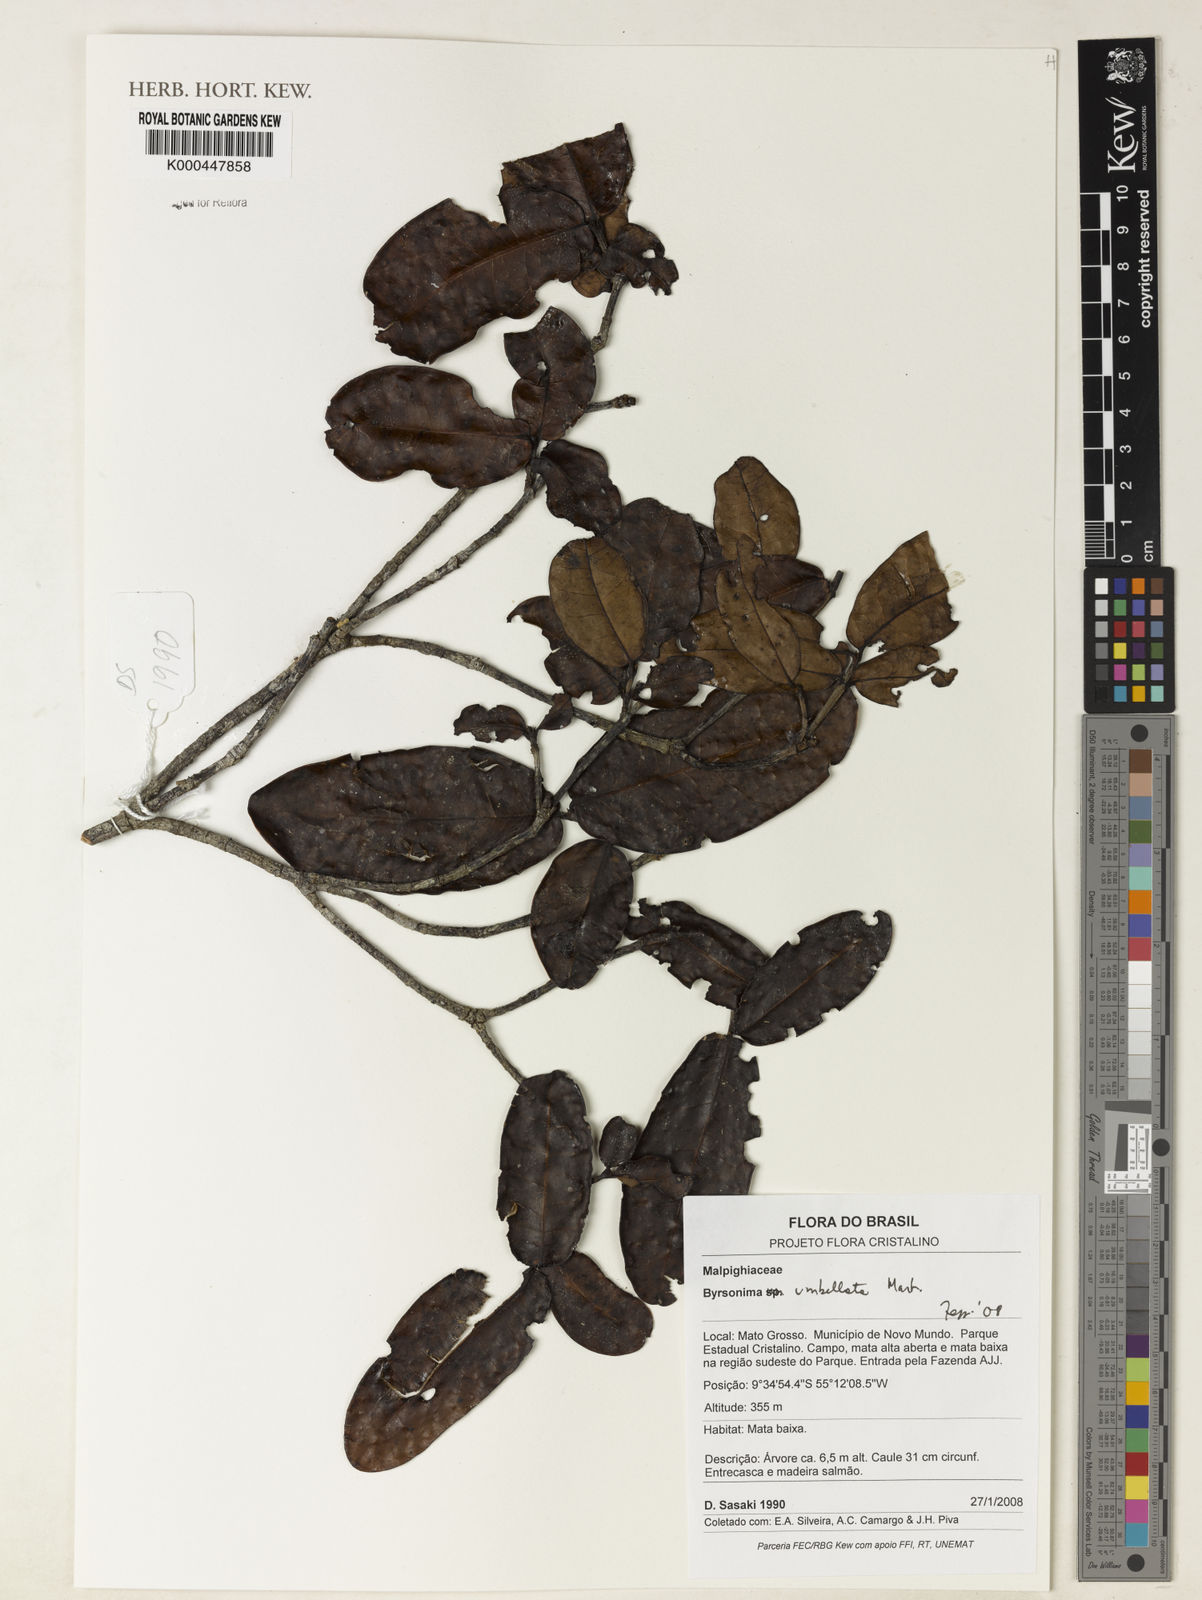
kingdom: Plantae
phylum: Tracheophyta
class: Magnoliopsida
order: Malpighiales
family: Malpighiaceae
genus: Byrsonima
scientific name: Byrsonima
